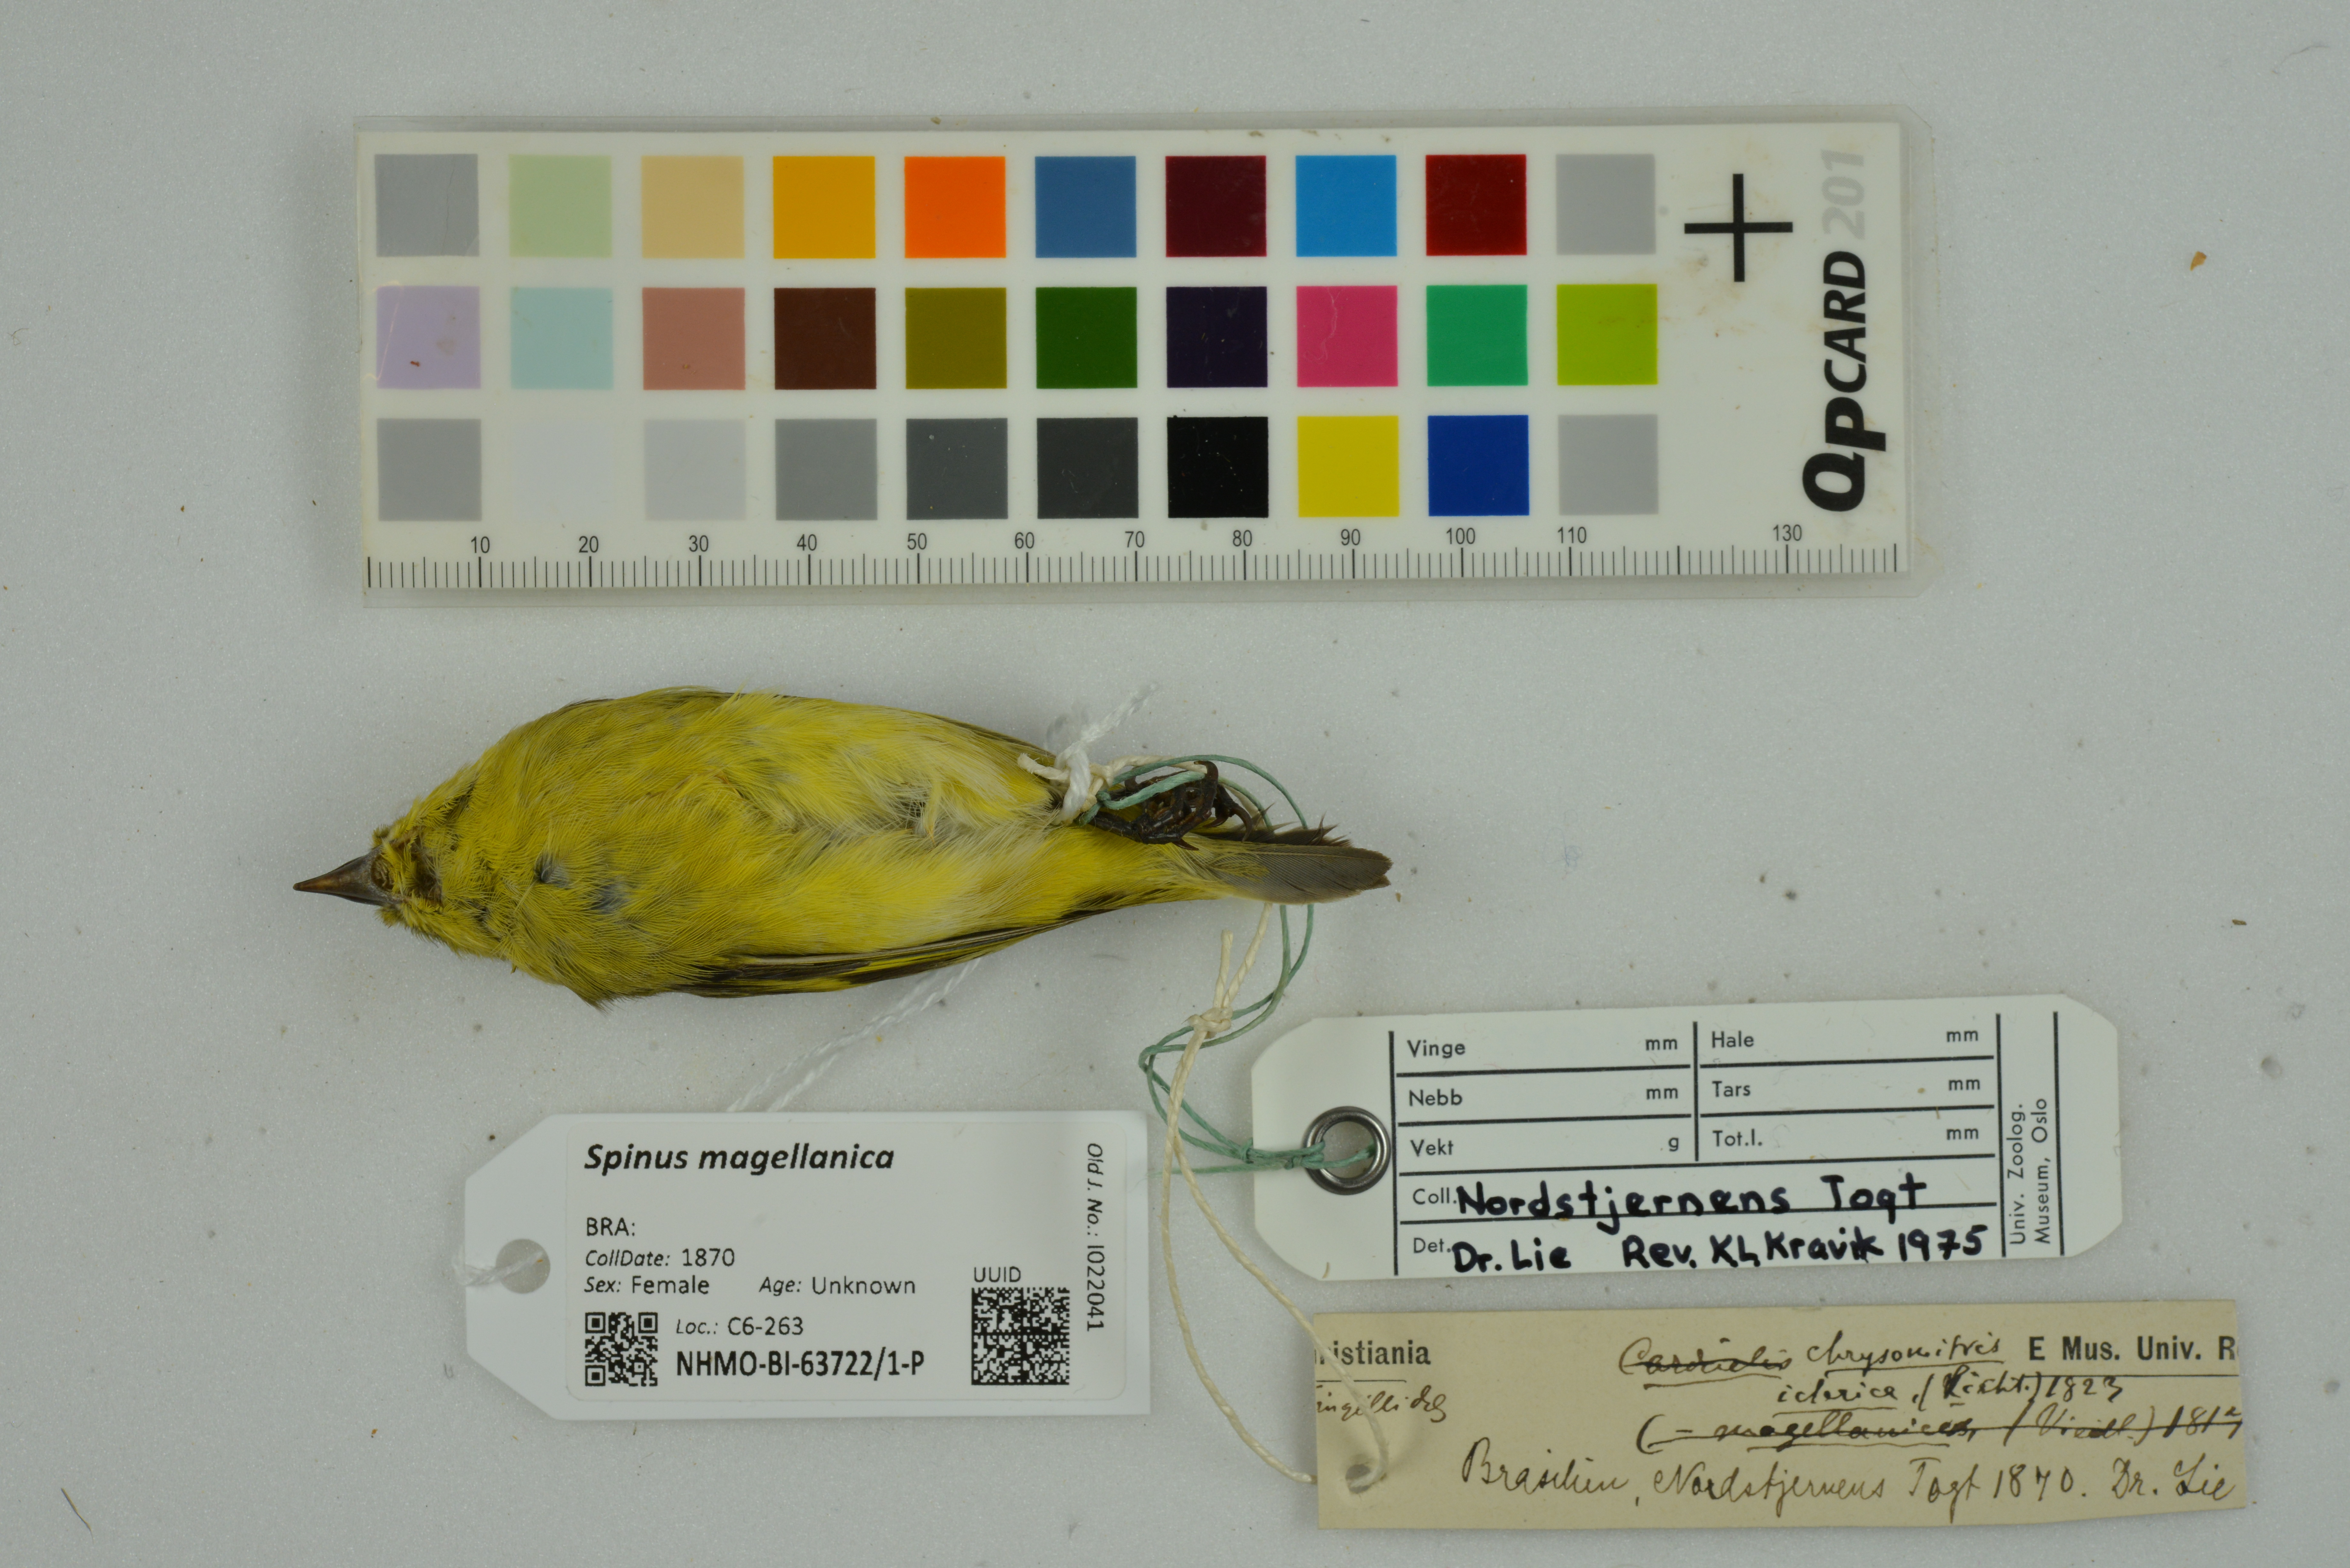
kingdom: Animalia
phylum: Chordata
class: Aves
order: Passeriformes
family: Fringillidae
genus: Spinus
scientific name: Spinus magellanicus
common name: Hooded siskin
